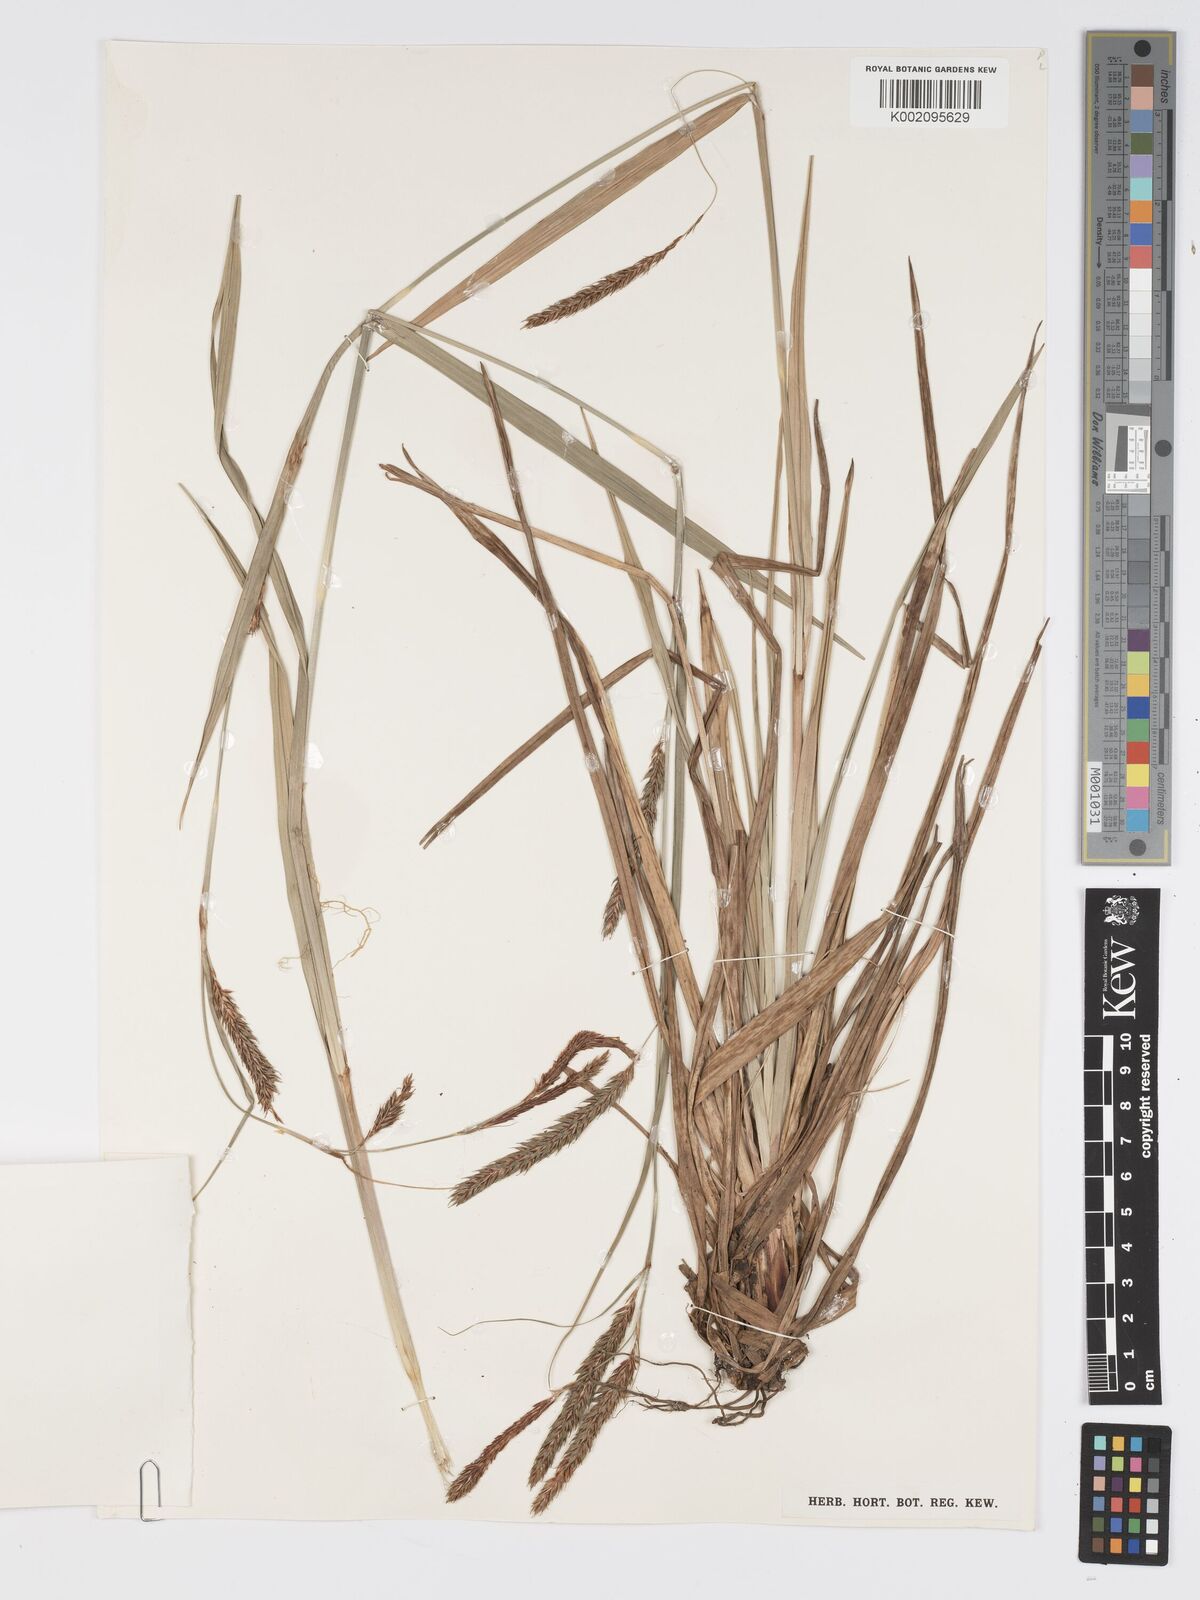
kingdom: Plantae
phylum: Tracheophyta
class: Liliopsida
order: Poales
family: Cyperaceae
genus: Carex
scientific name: Carex simensis
